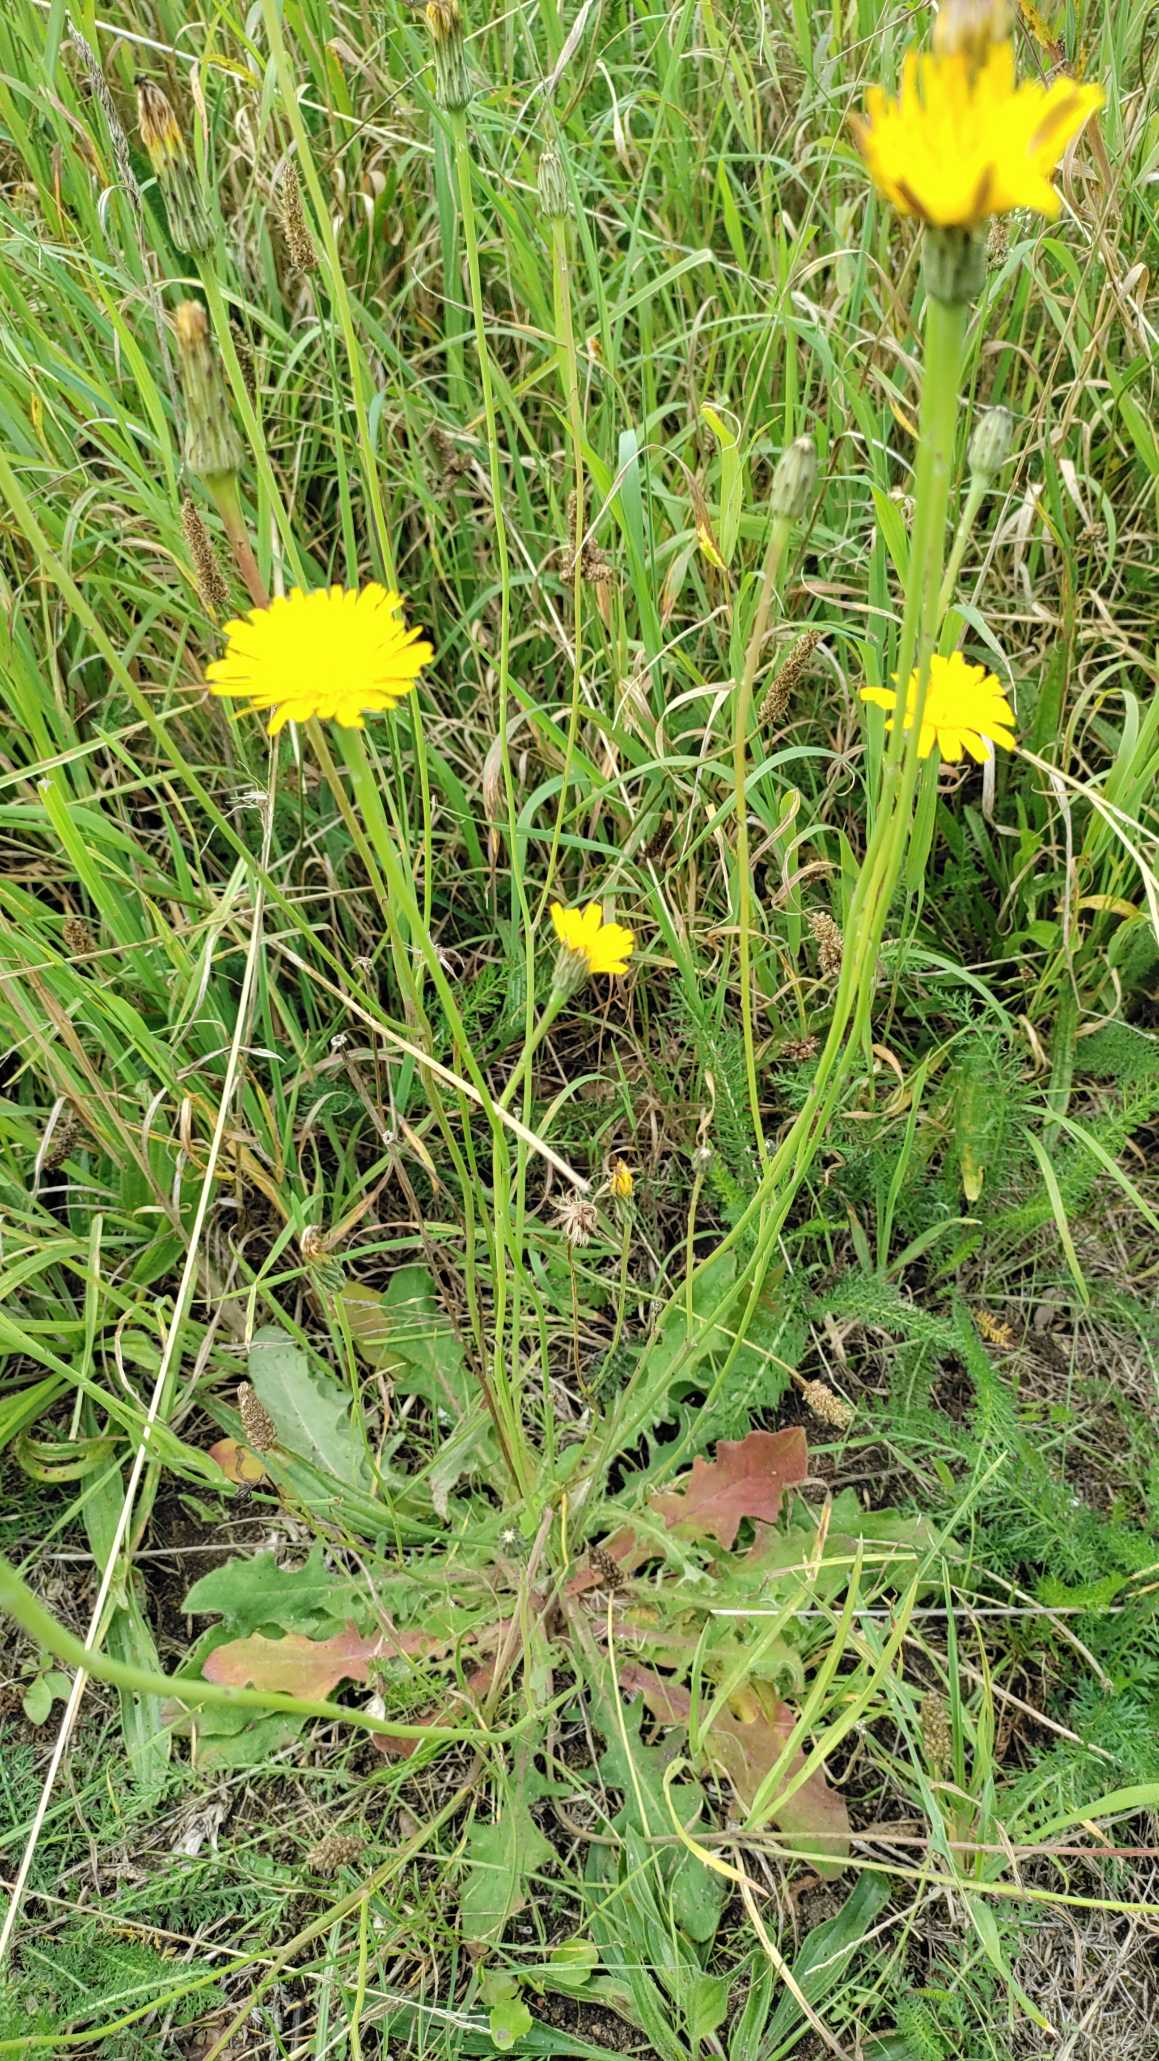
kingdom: Plantae
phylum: Tracheophyta
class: Magnoliopsida
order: Asterales
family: Asteraceae
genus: Hypochaeris
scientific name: Hypochaeris radicata
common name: Almindelig kongepen
